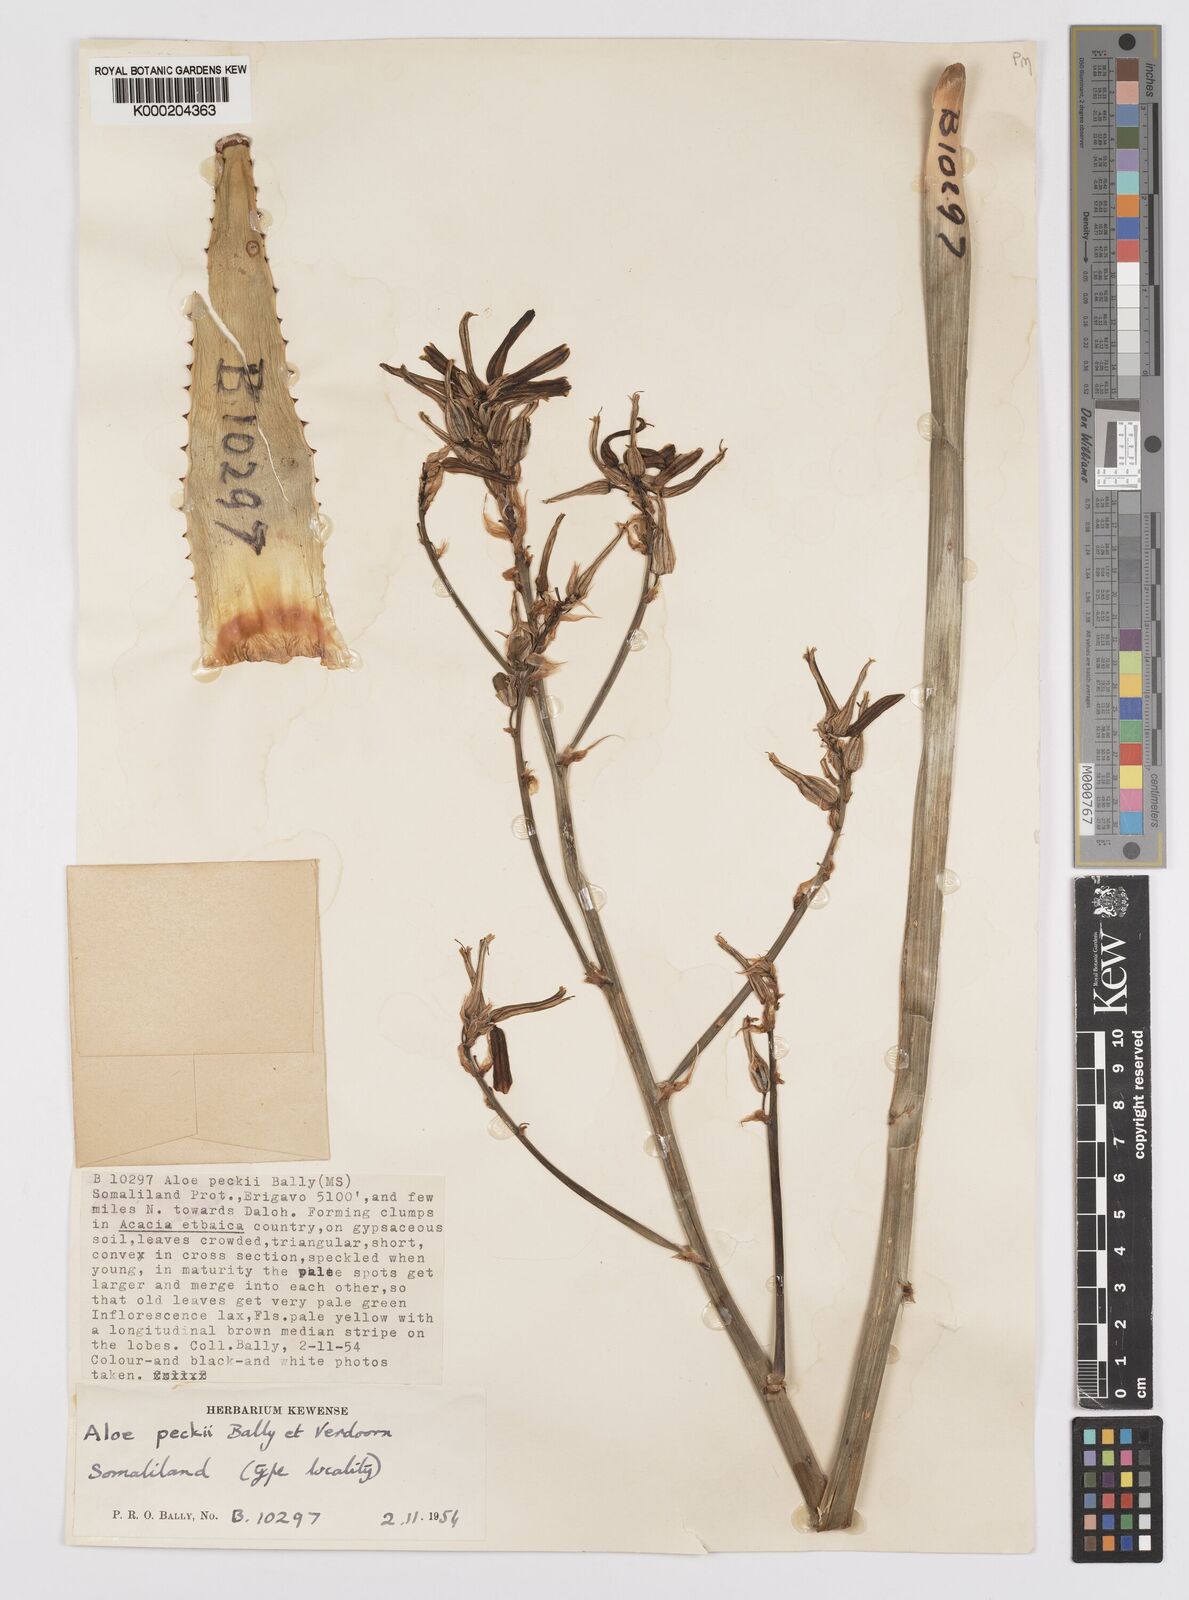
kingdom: Plantae
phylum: Tracheophyta
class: Liliopsida
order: Asparagales
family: Asphodelaceae
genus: Aloe
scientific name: Aloe peckii
